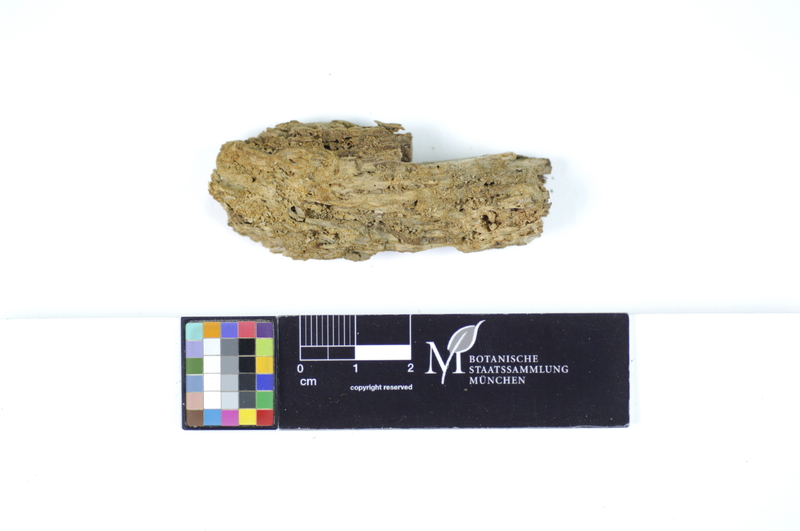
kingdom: Plantae
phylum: Tracheophyta
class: Magnoliopsida
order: Fagales
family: Fagaceae
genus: Quercus
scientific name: Quercus
